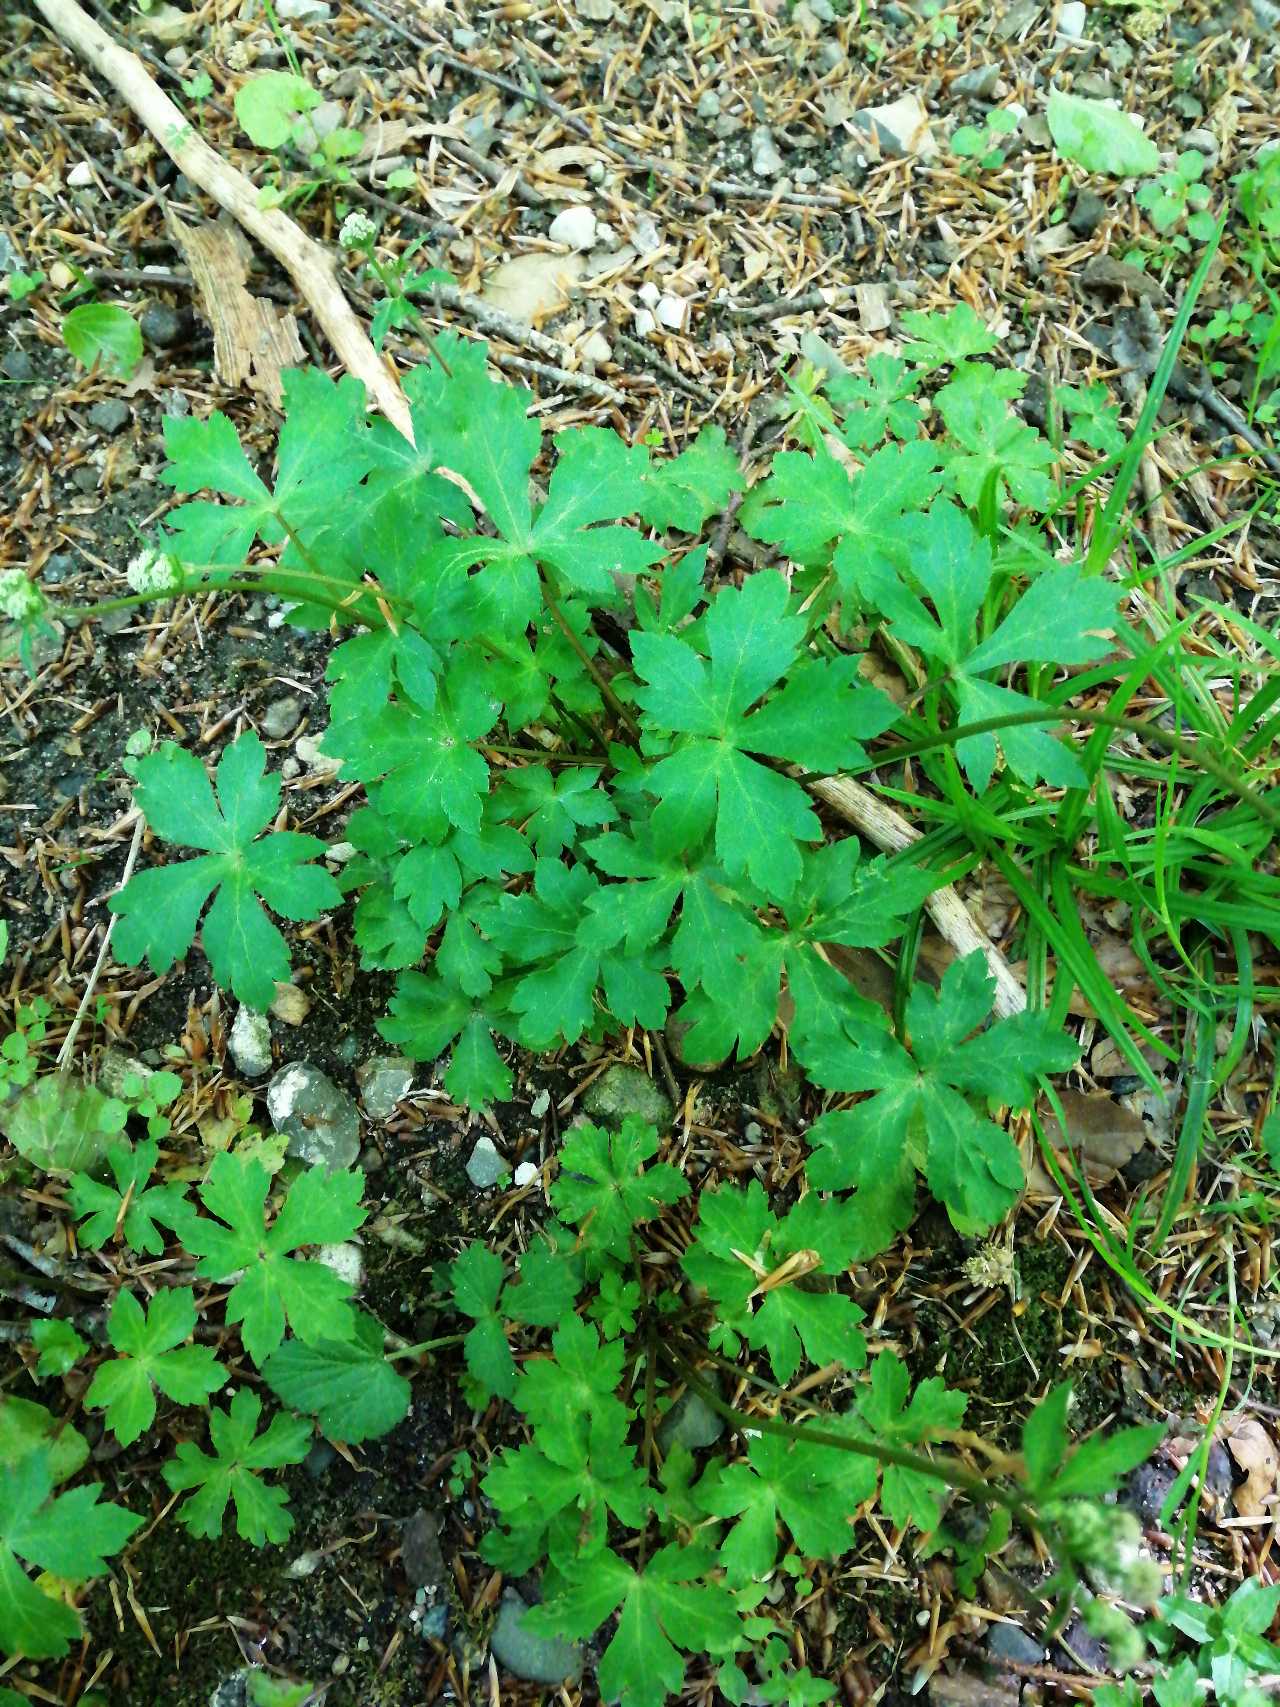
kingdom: Plantae
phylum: Tracheophyta
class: Magnoliopsida
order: Apiales
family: Apiaceae
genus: Sanicula
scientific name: Sanicula europaea
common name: Sanikel
